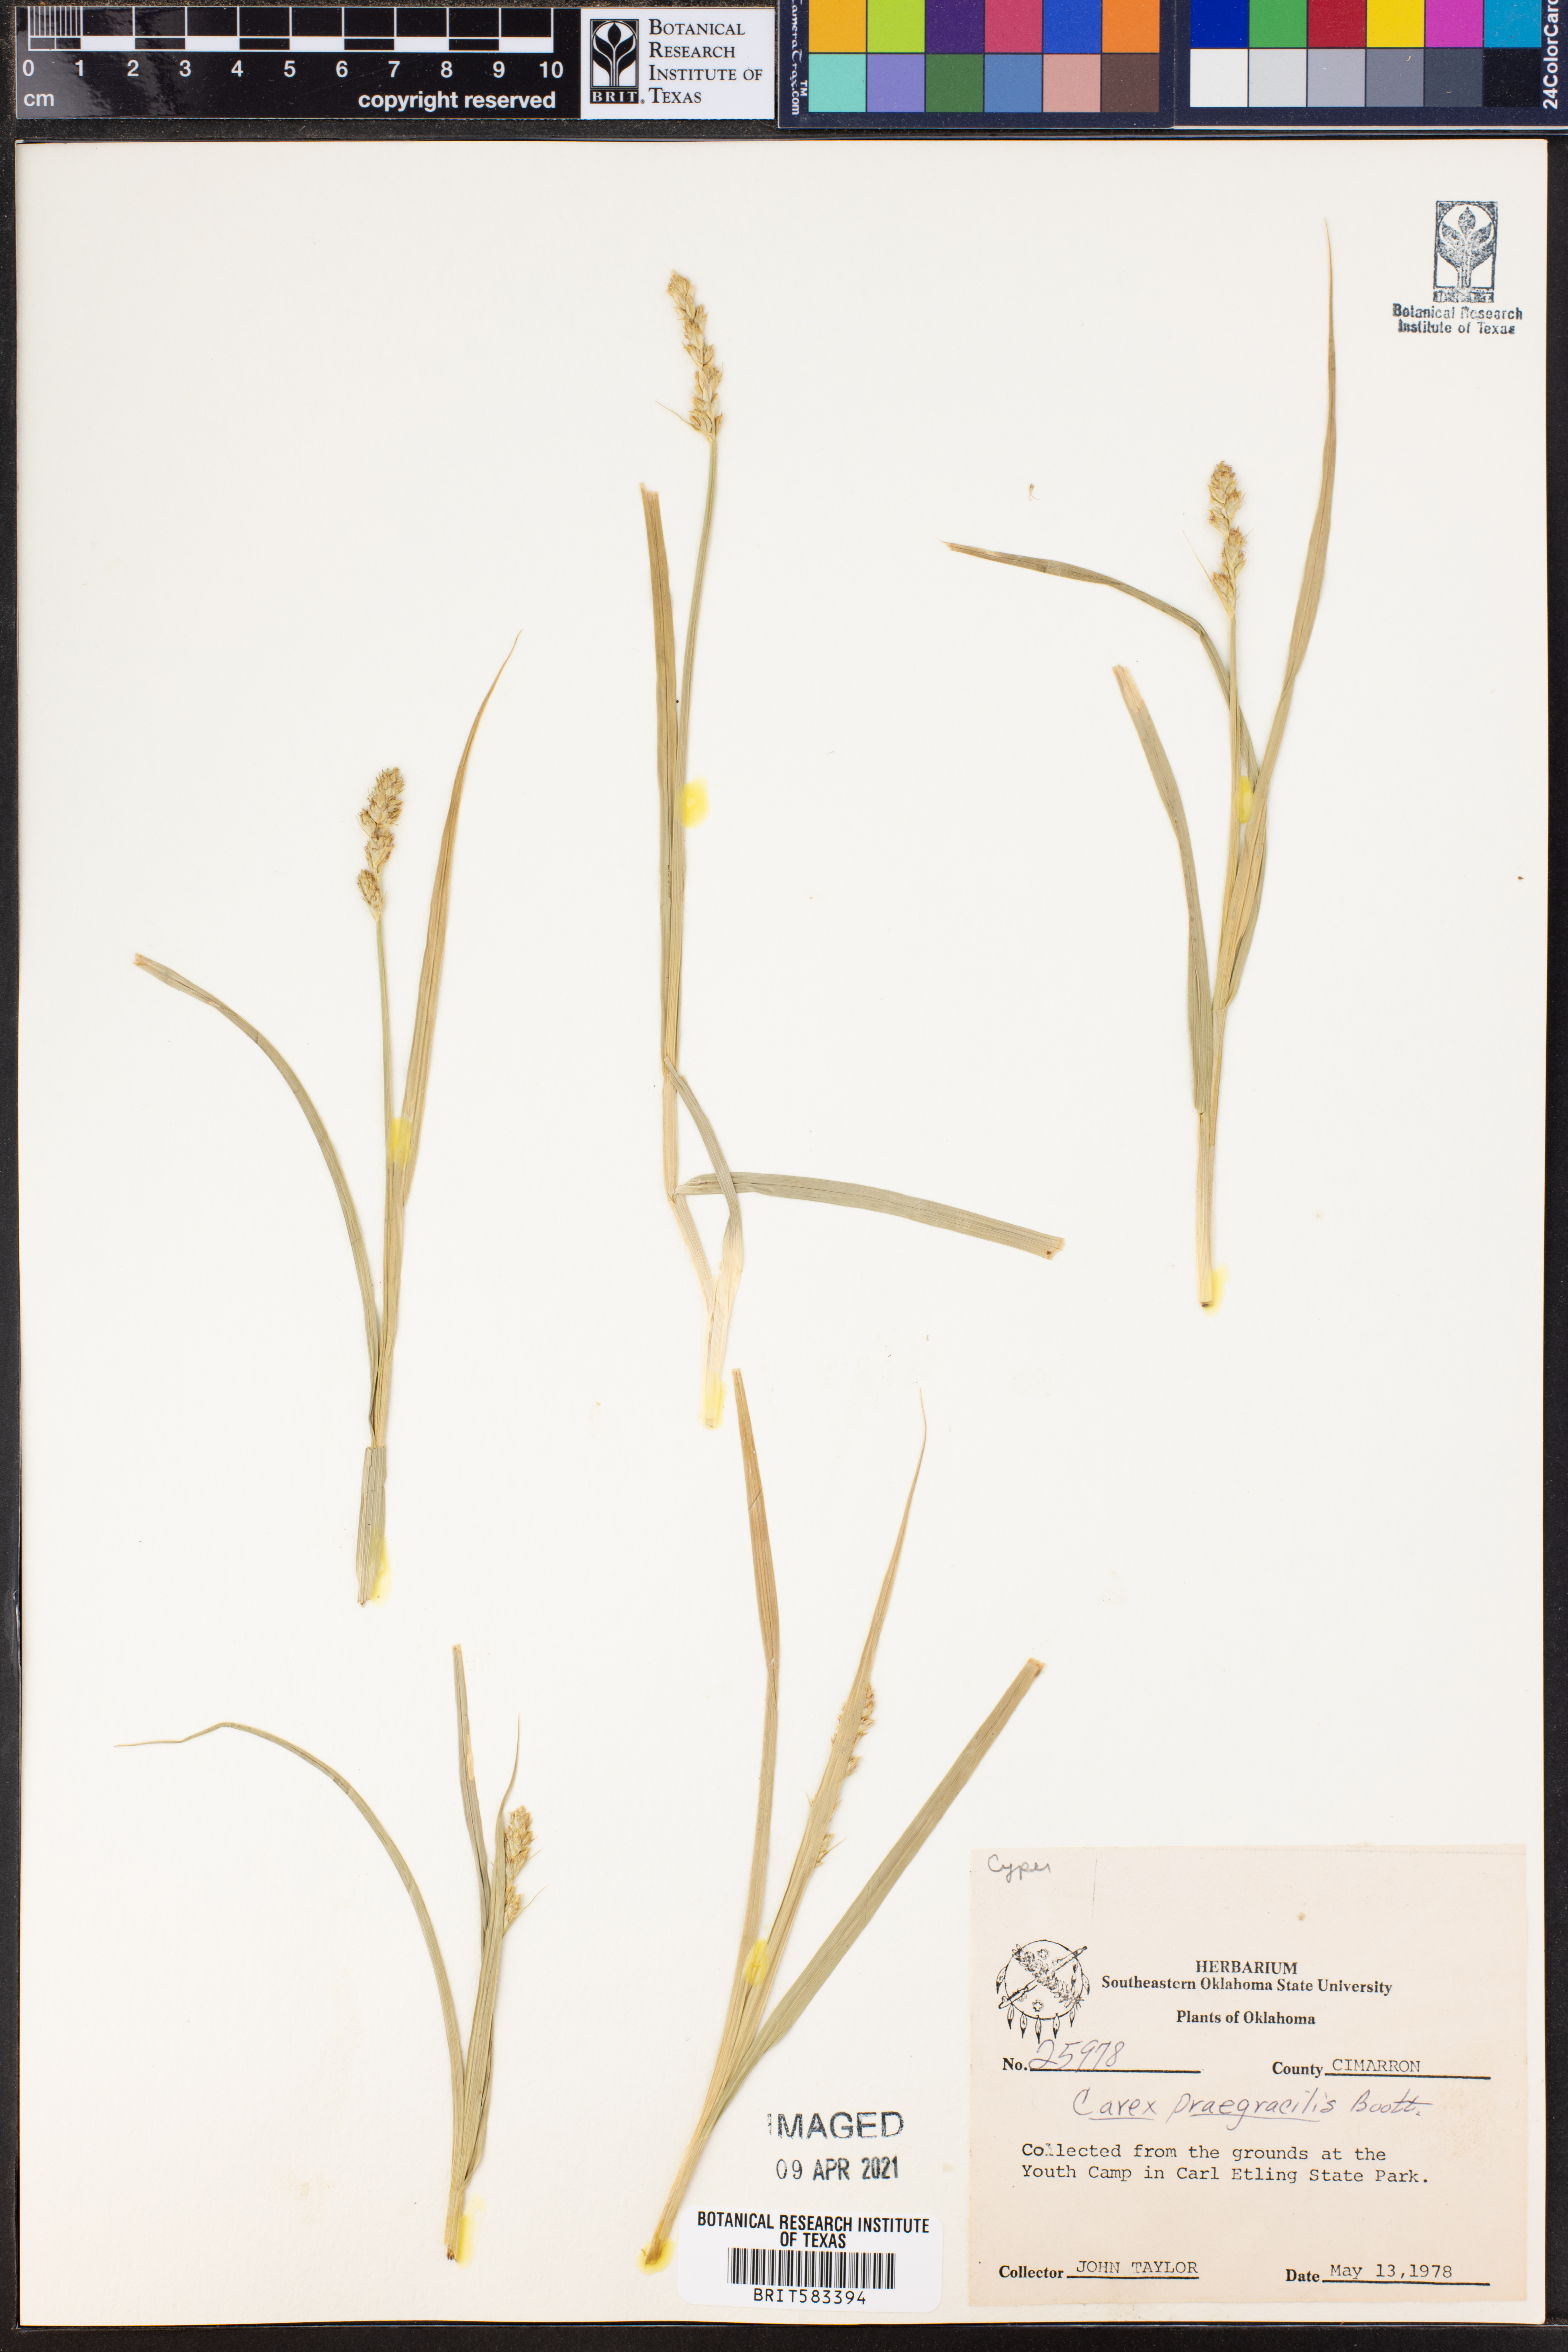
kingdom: Plantae
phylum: Tracheophyta
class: Liliopsida
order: Poales
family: Cyperaceae
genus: Carex
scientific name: Carex praegracilis
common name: Black creeper sedge
